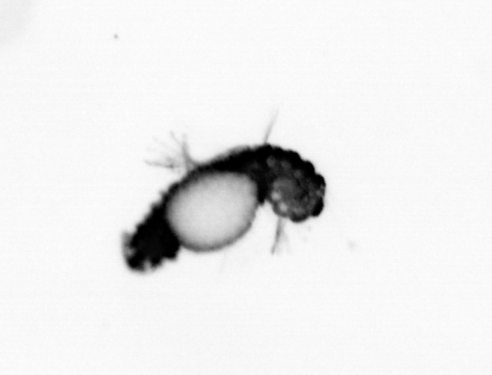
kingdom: Animalia
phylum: Annelida
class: Polychaeta
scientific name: Polychaeta
